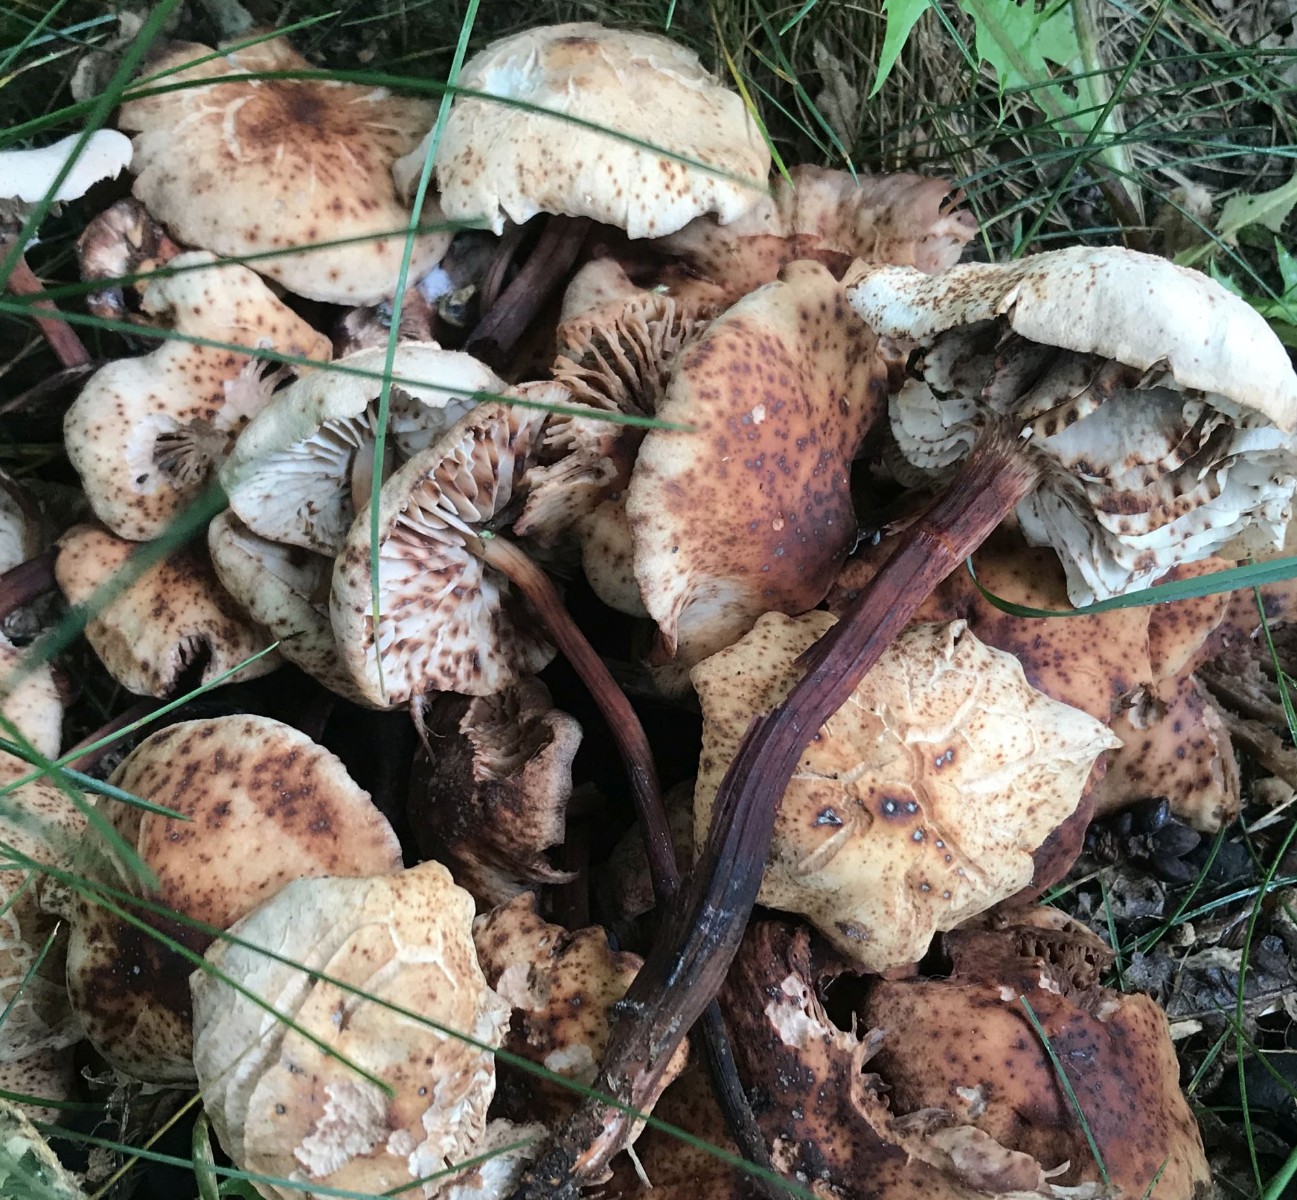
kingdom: Fungi
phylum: Basidiomycota
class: Agaricomycetes
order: Agaricales
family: Omphalotaceae
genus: Gymnopus
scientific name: Gymnopus fusipes
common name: tenstokket fladhat
